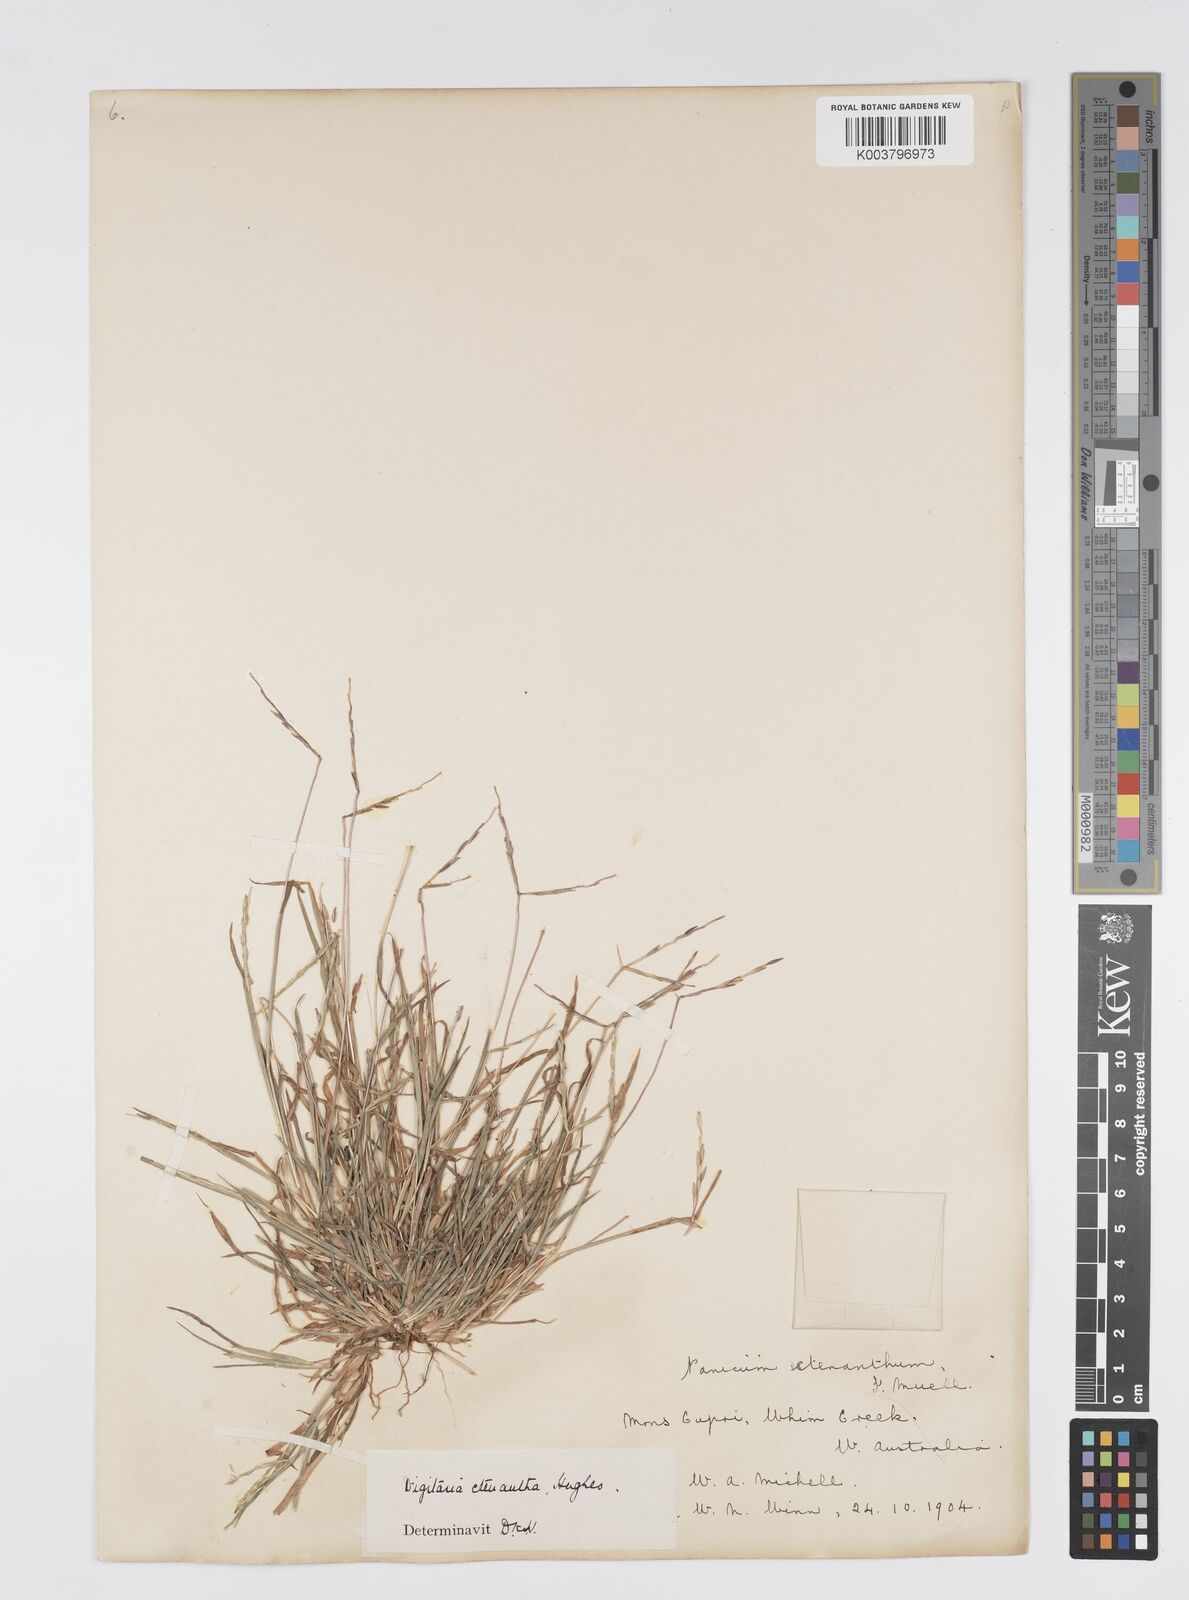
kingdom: Plantae
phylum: Tracheophyta
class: Liliopsida
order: Poales
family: Poaceae
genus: Digitaria
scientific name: Digitaria ctenantha
